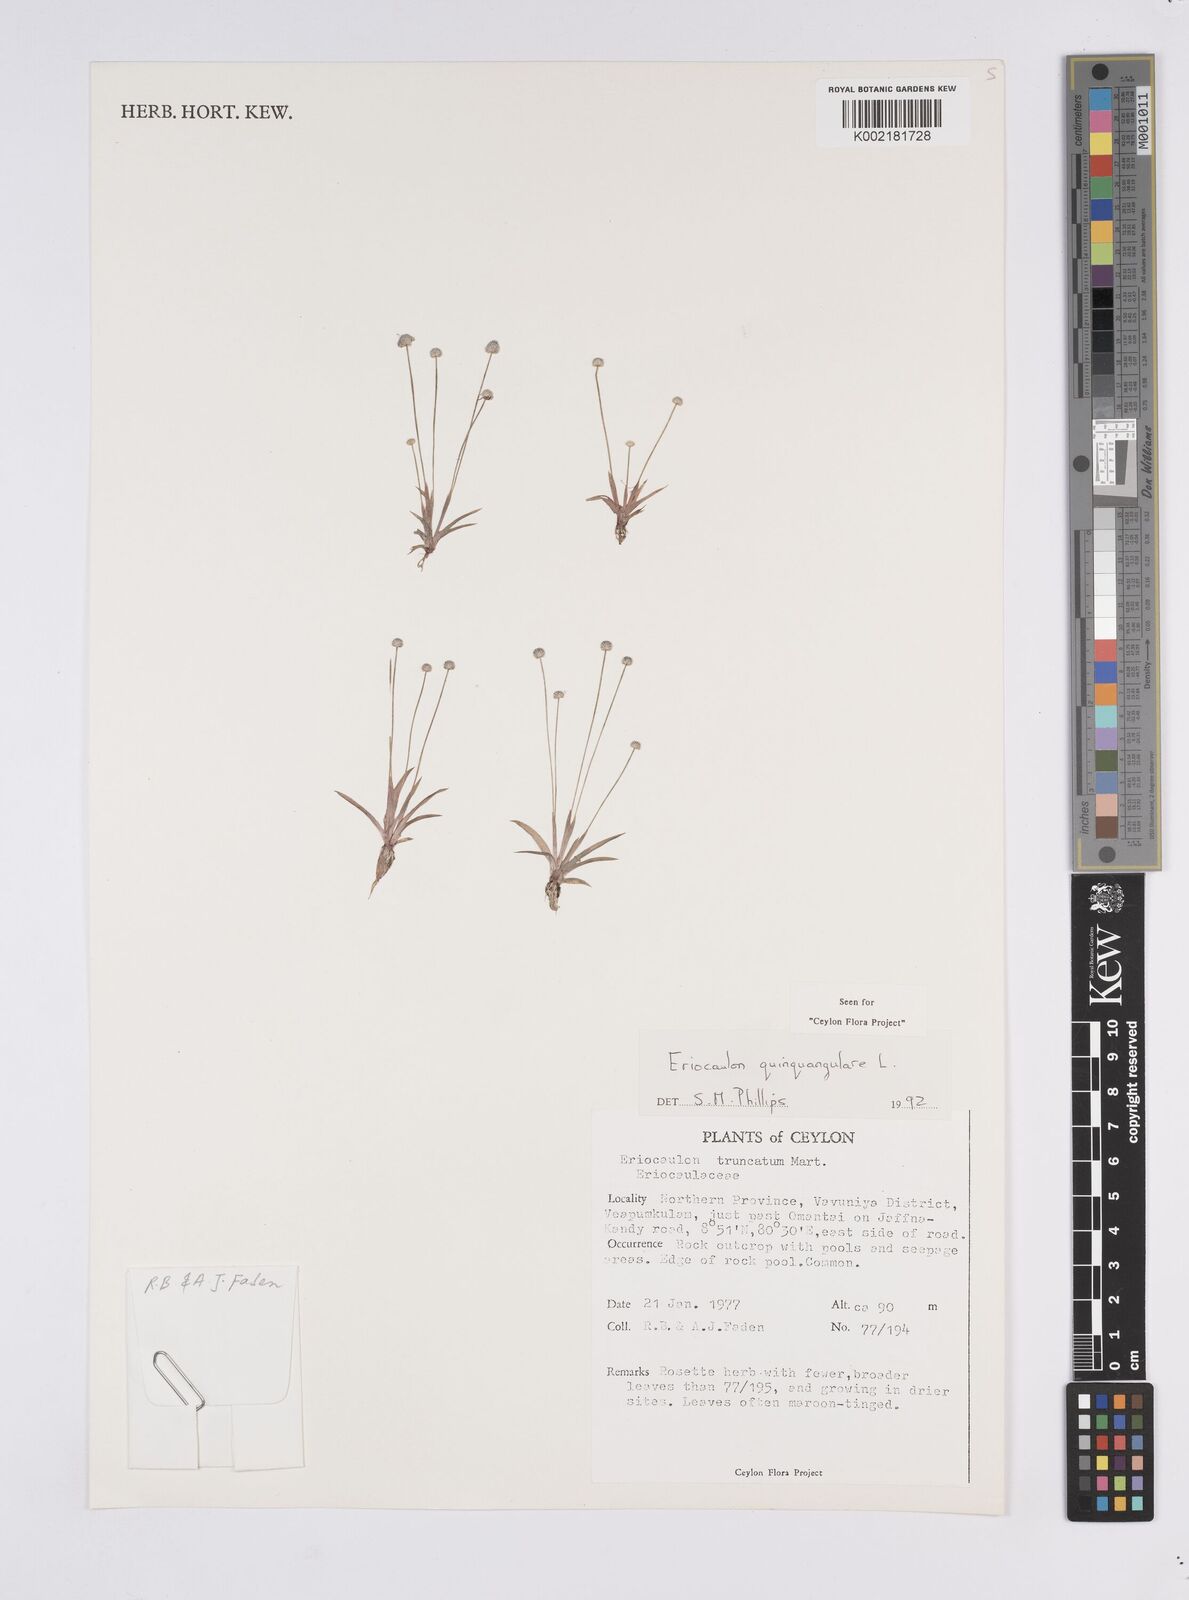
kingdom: Plantae
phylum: Tracheophyta
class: Liliopsida
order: Poales
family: Eriocaulaceae
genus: Eriocaulon
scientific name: Eriocaulon quinquangulare
